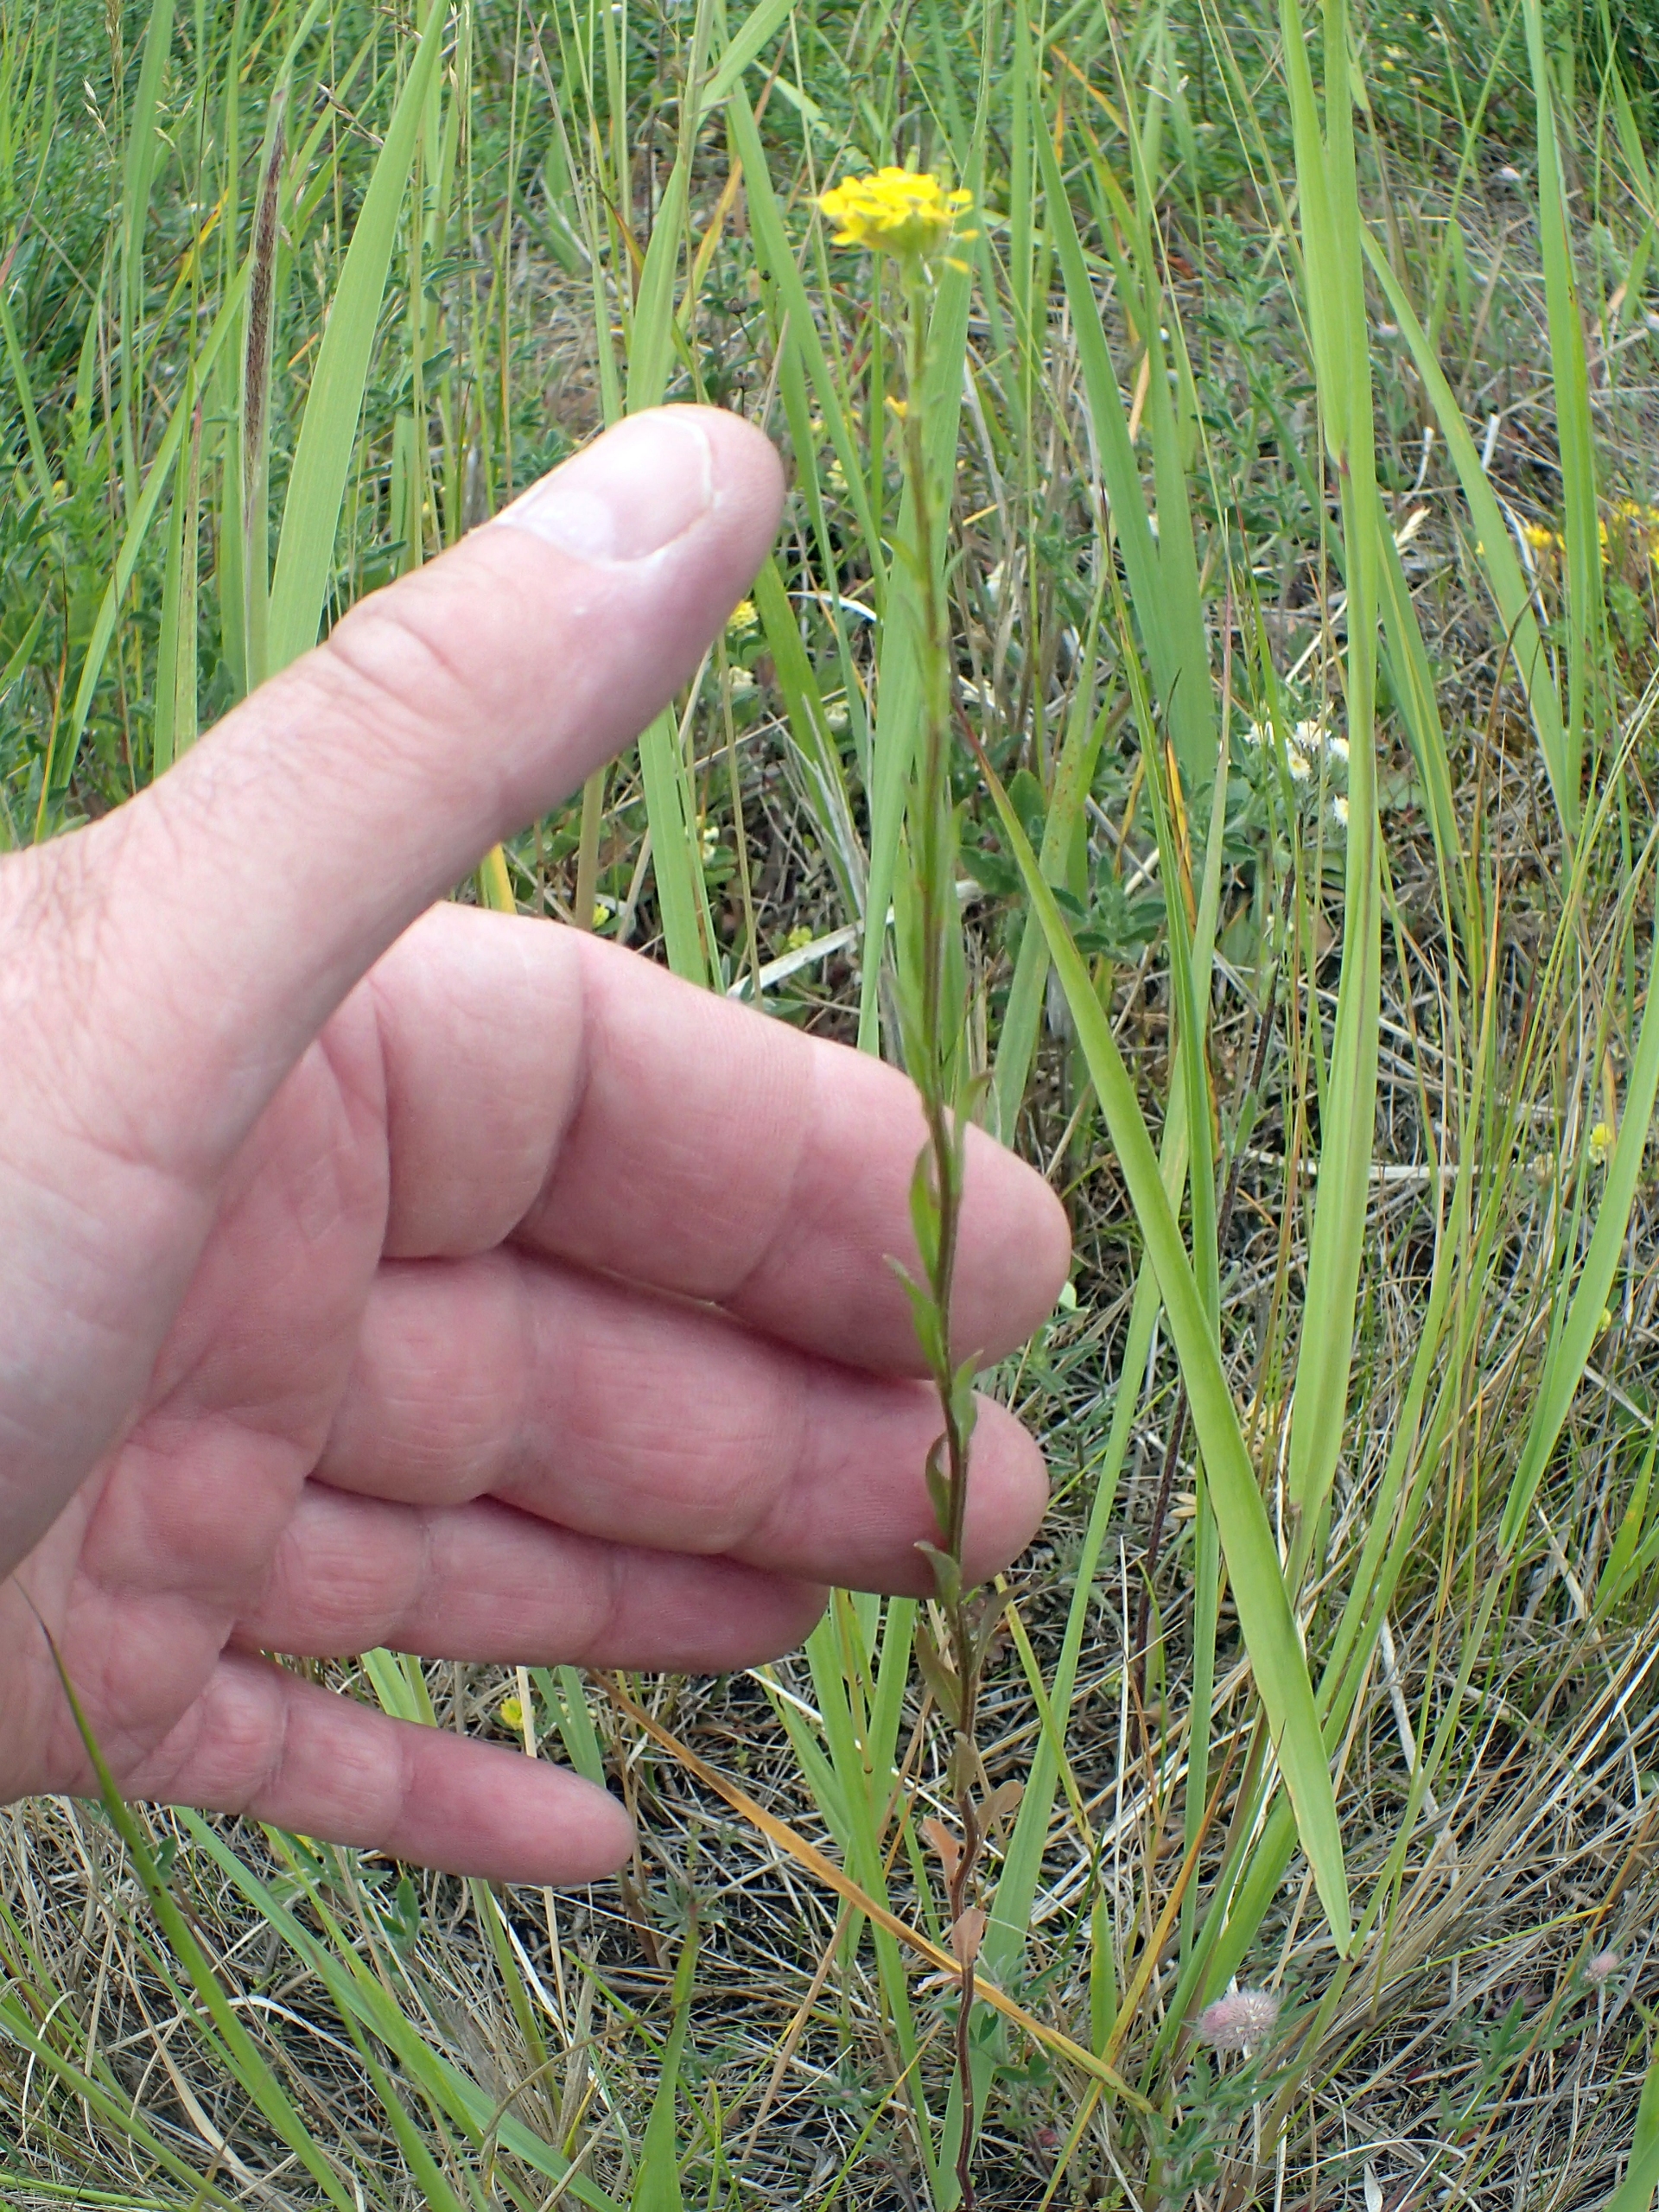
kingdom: Plantae
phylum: Tracheophyta
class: Magnoliopsida
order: Brassicales
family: Brassicaceae
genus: Erysimum
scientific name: Erysimum strictum
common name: Rank hjørneklap
